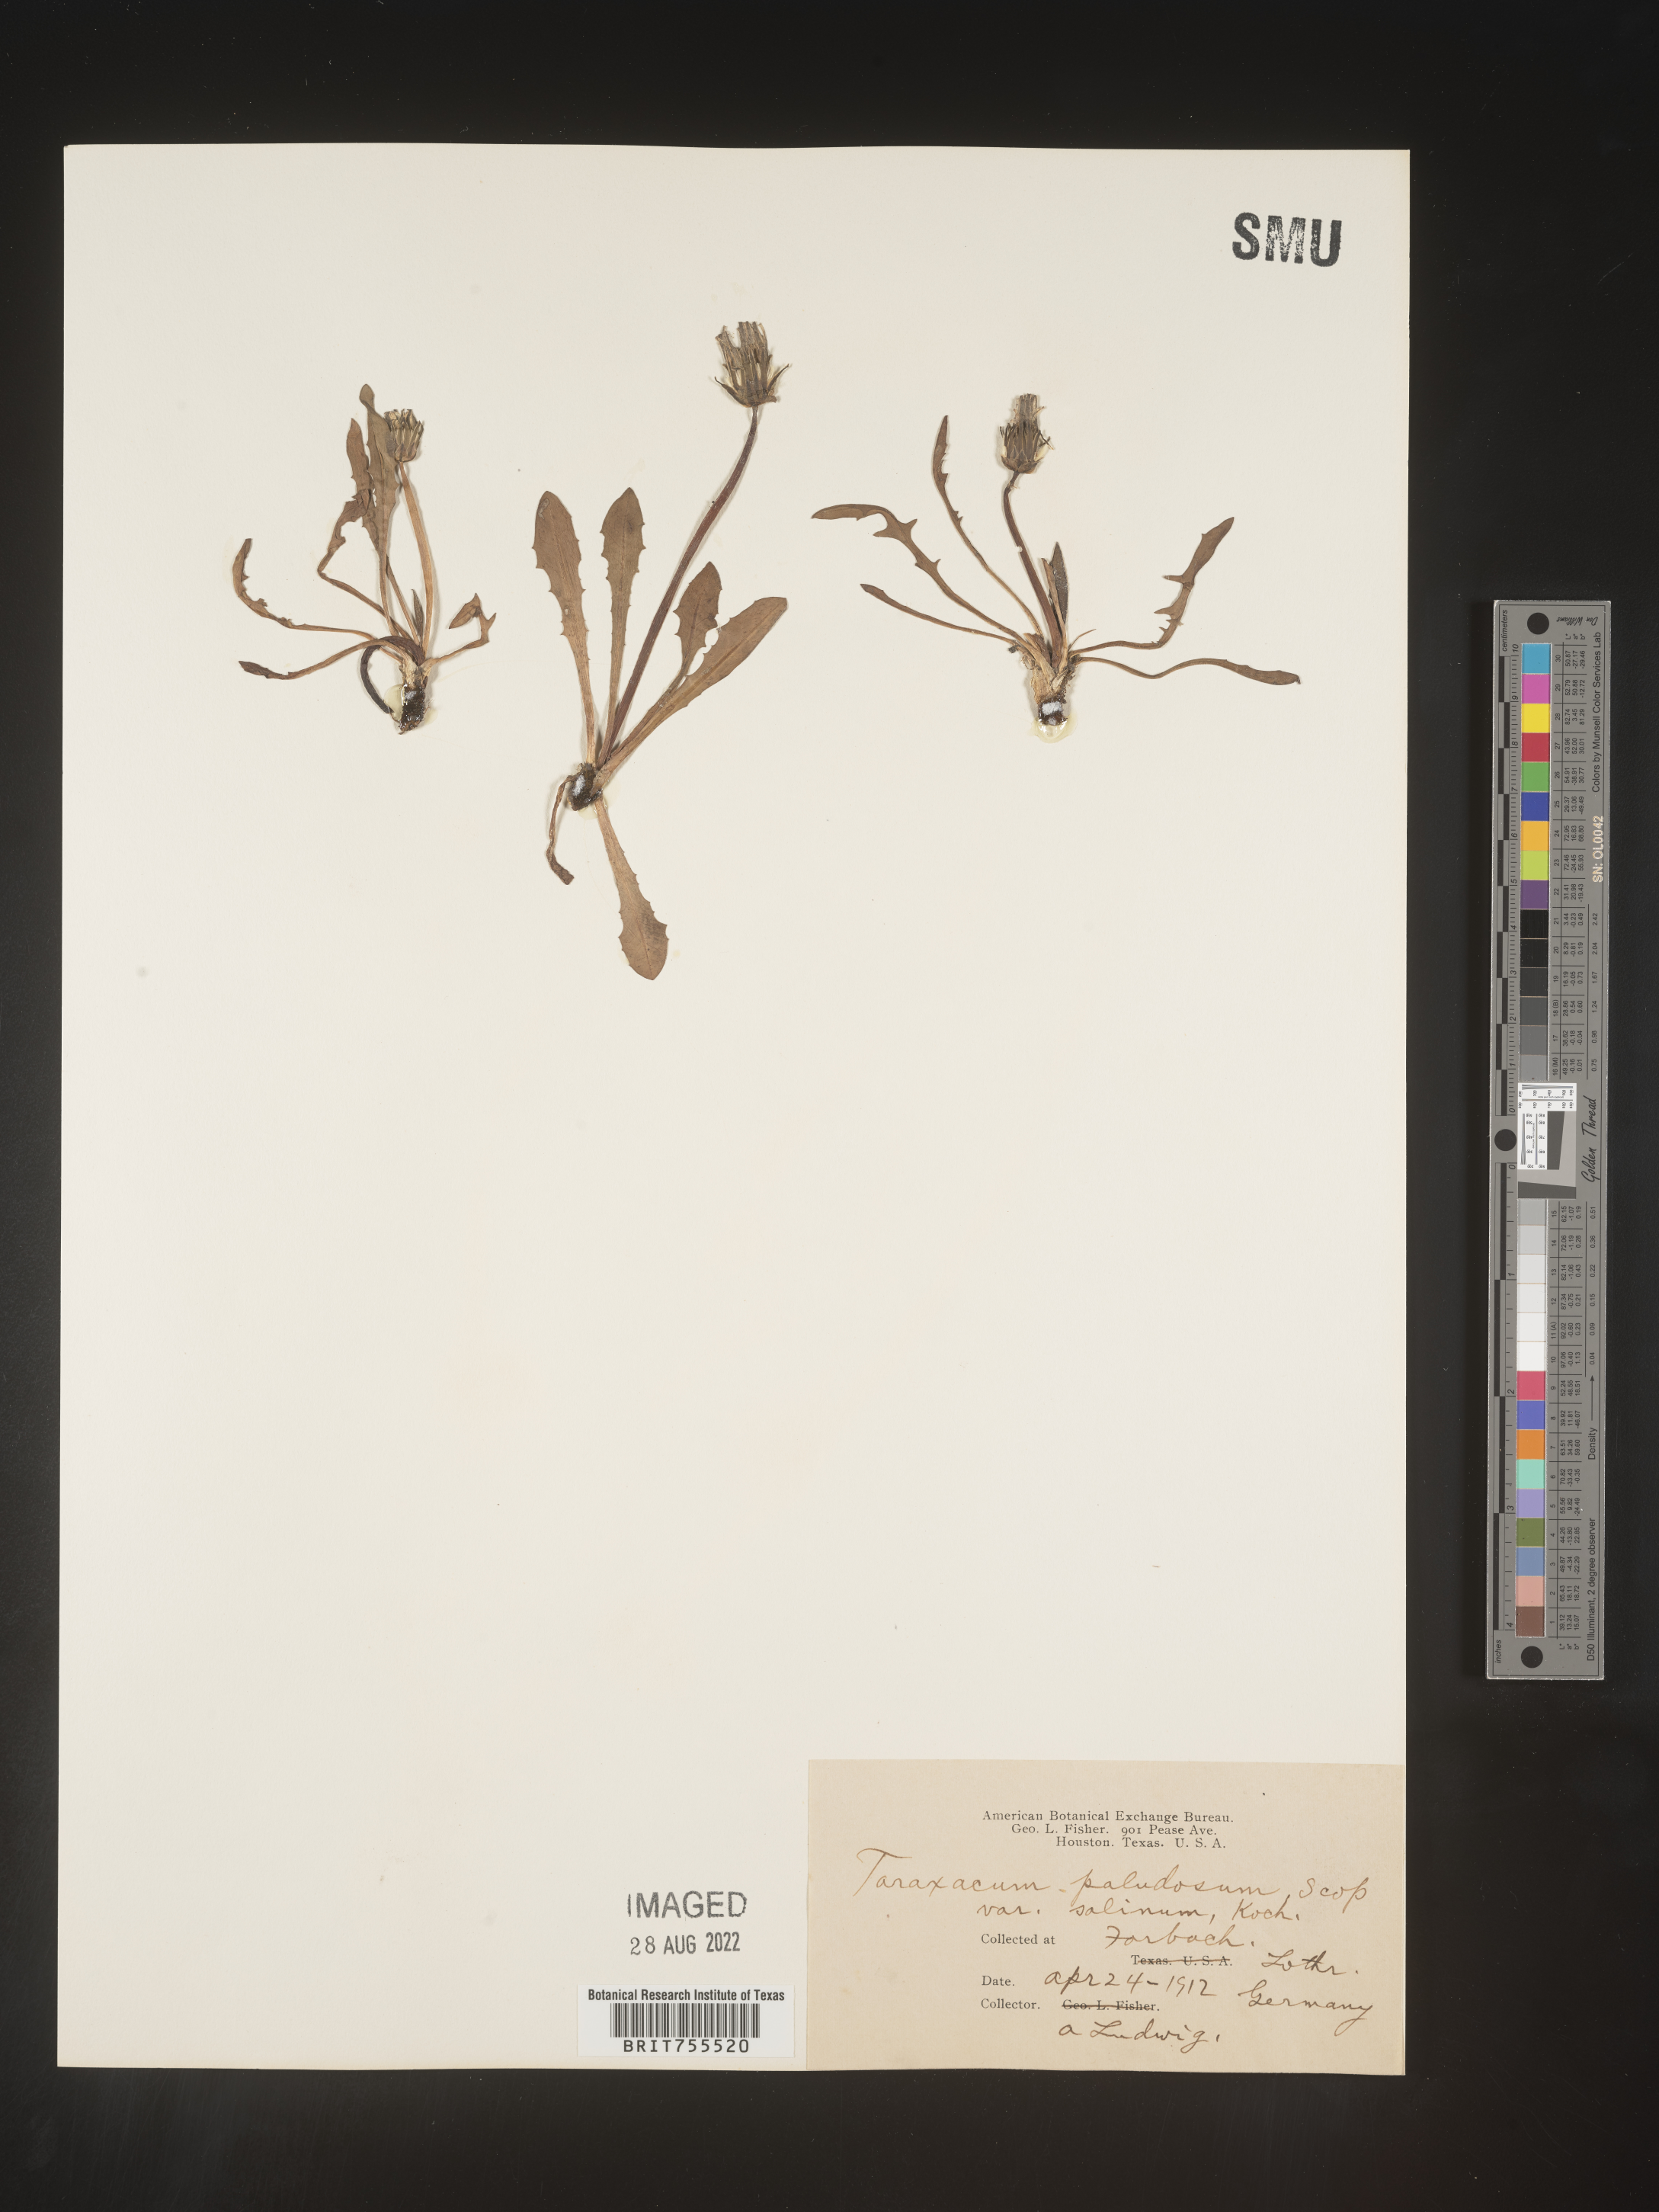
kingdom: Plantae
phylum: Tracheophyta
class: Magnoliopsida
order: Asterales
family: Asteraceae
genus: Taraxacum
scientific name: Taraxacum
